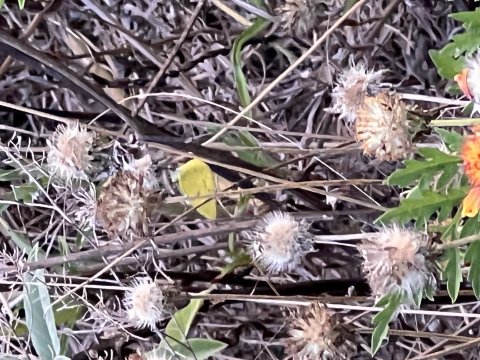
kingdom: Animalia
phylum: Arthropoda
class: Insecta
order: Lepidoptera
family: Pieridae
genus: Pyrisitia
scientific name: Pyrisitia lisa
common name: Little Yellow
